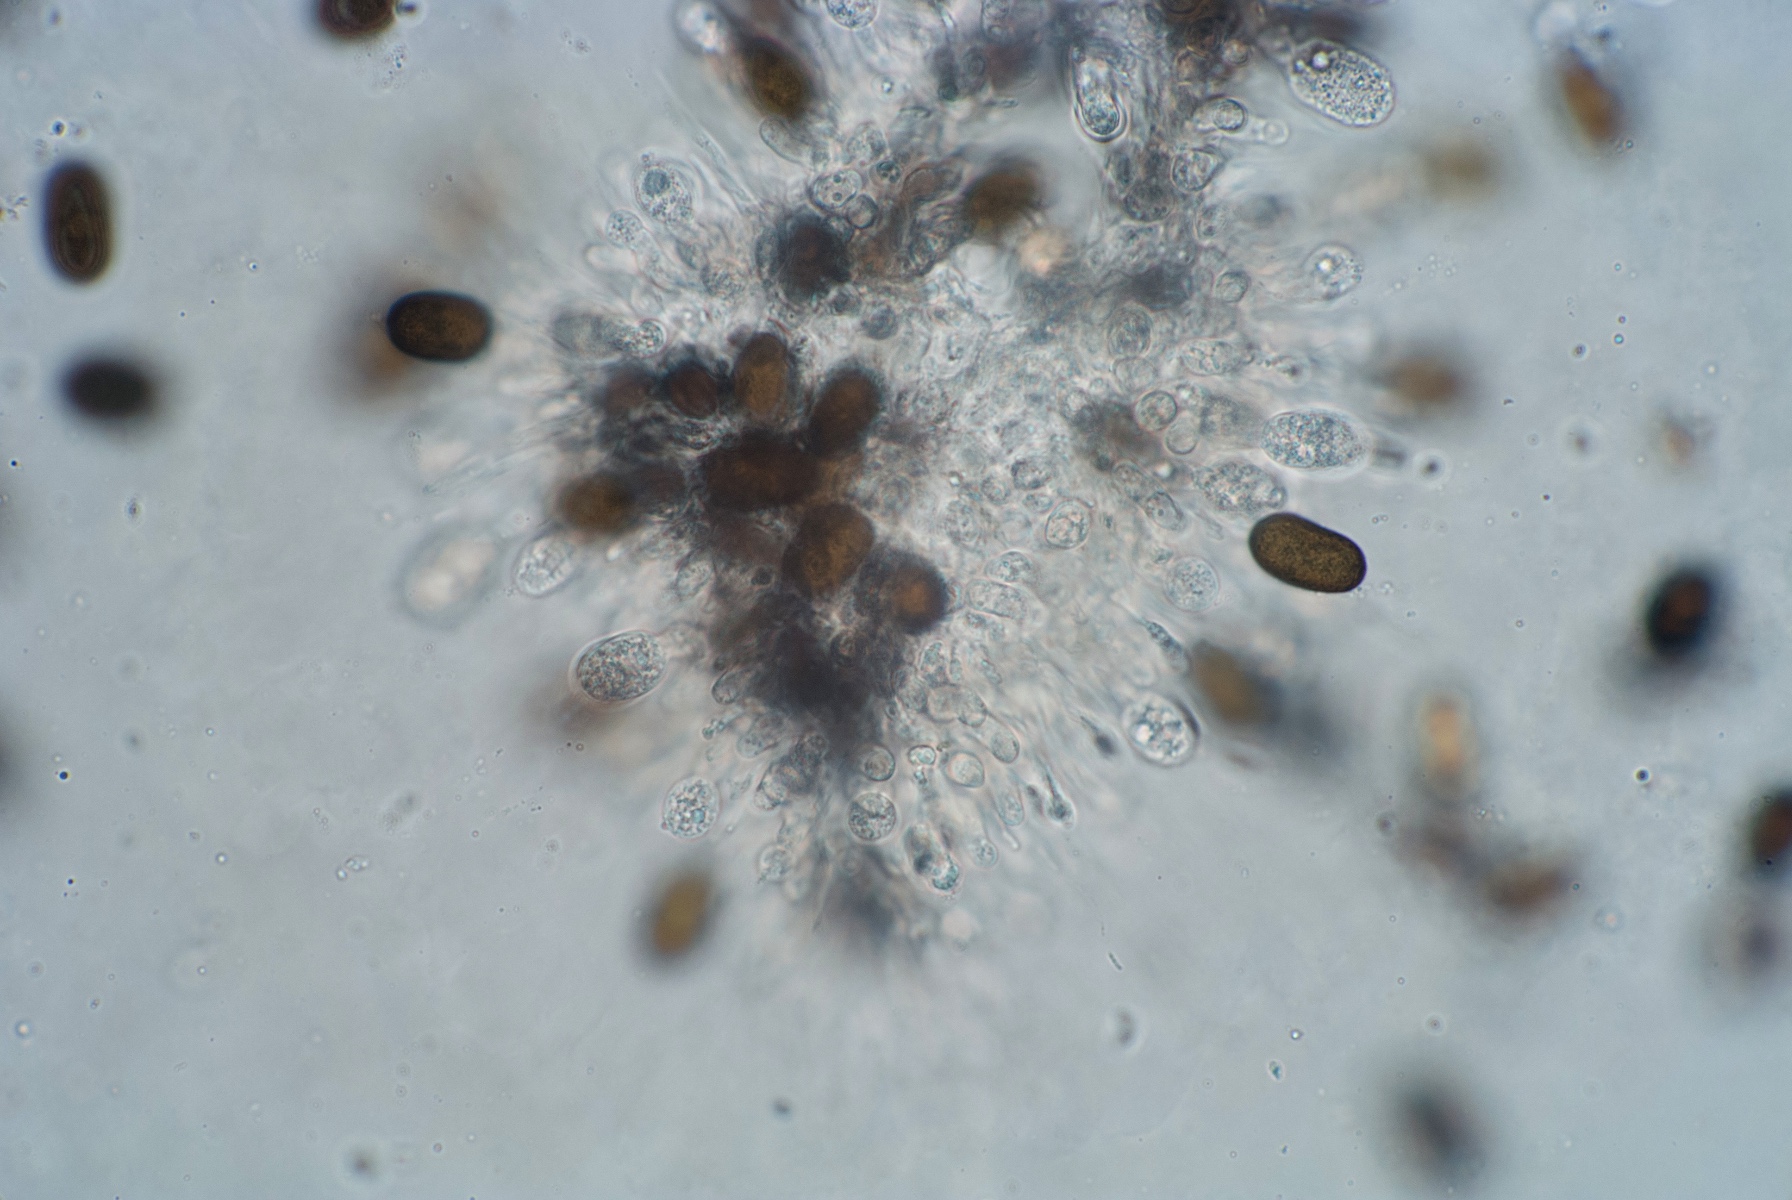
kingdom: Fungi
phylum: Ascomycota
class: Dothideomycetes
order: Botryosphaeriales
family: Botryosphaeriaceae
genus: Diplodia
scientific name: Diplodia seriata
